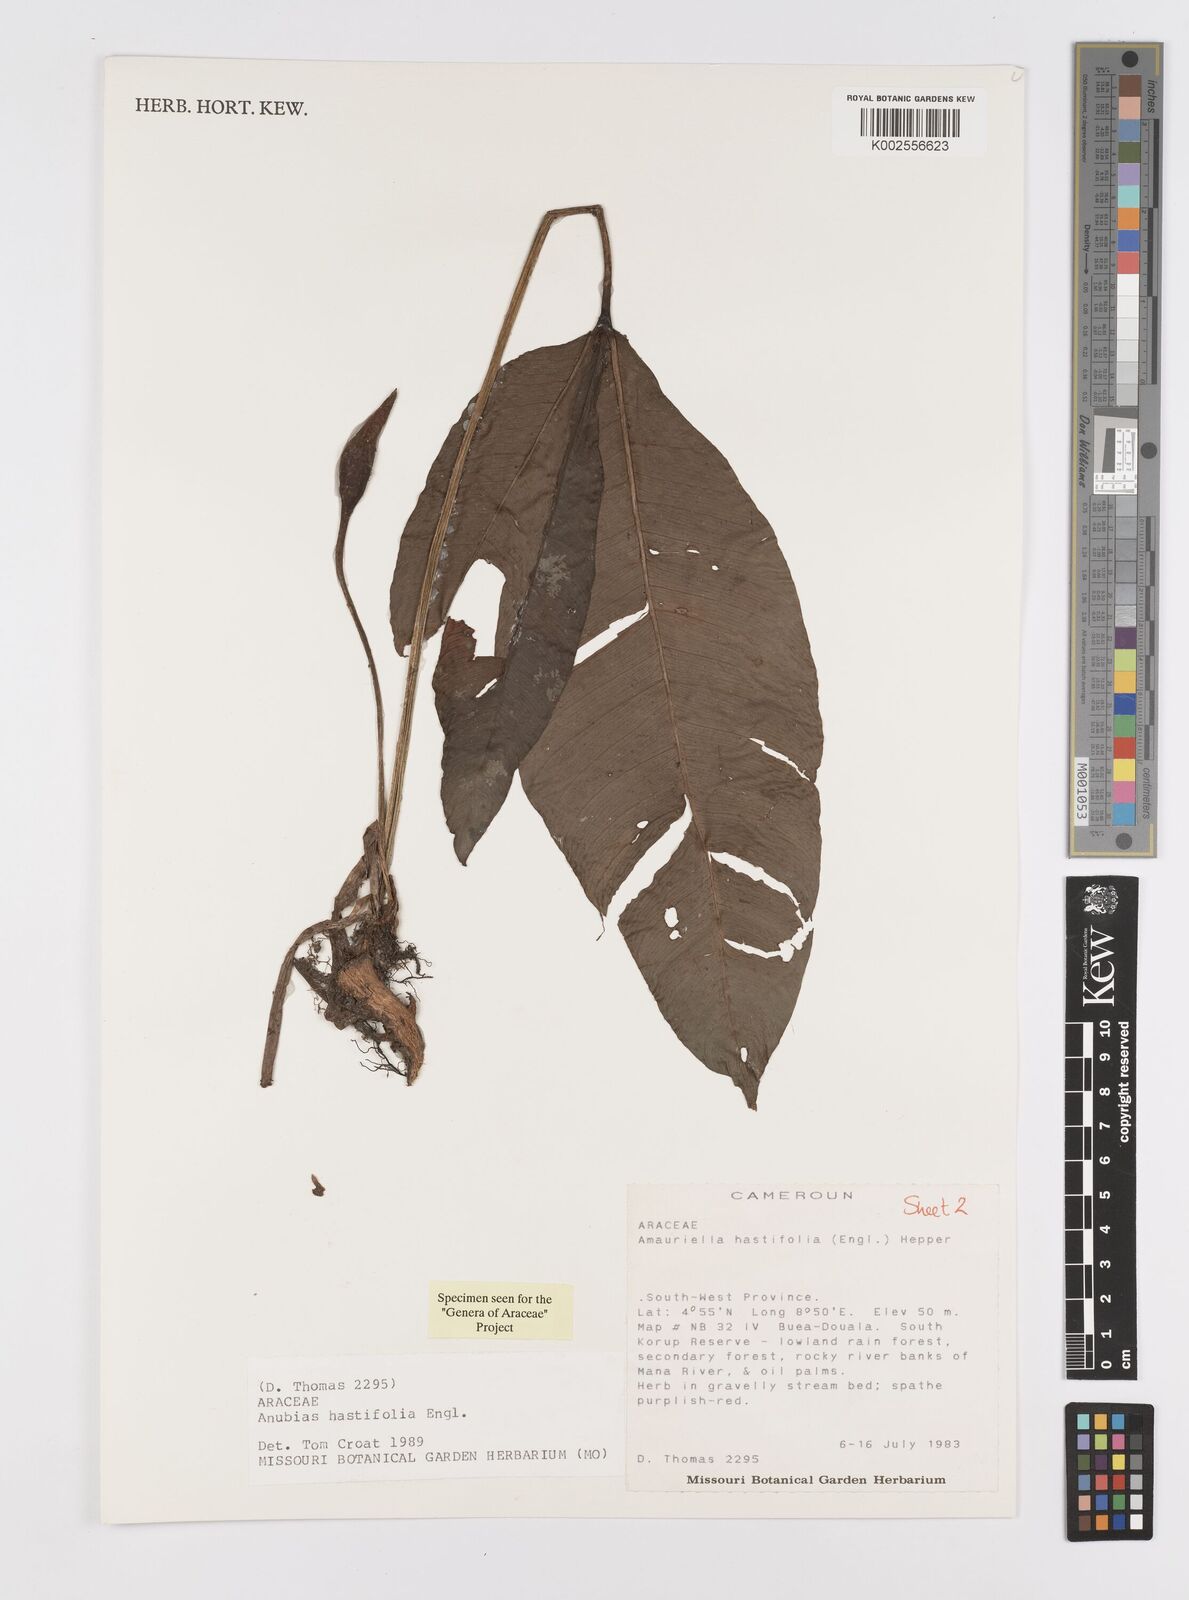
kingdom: Plantae
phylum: Tracheophyta
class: Liliopsida
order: Alismatales
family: Araceae
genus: Anubias
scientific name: Anubias gilletii
